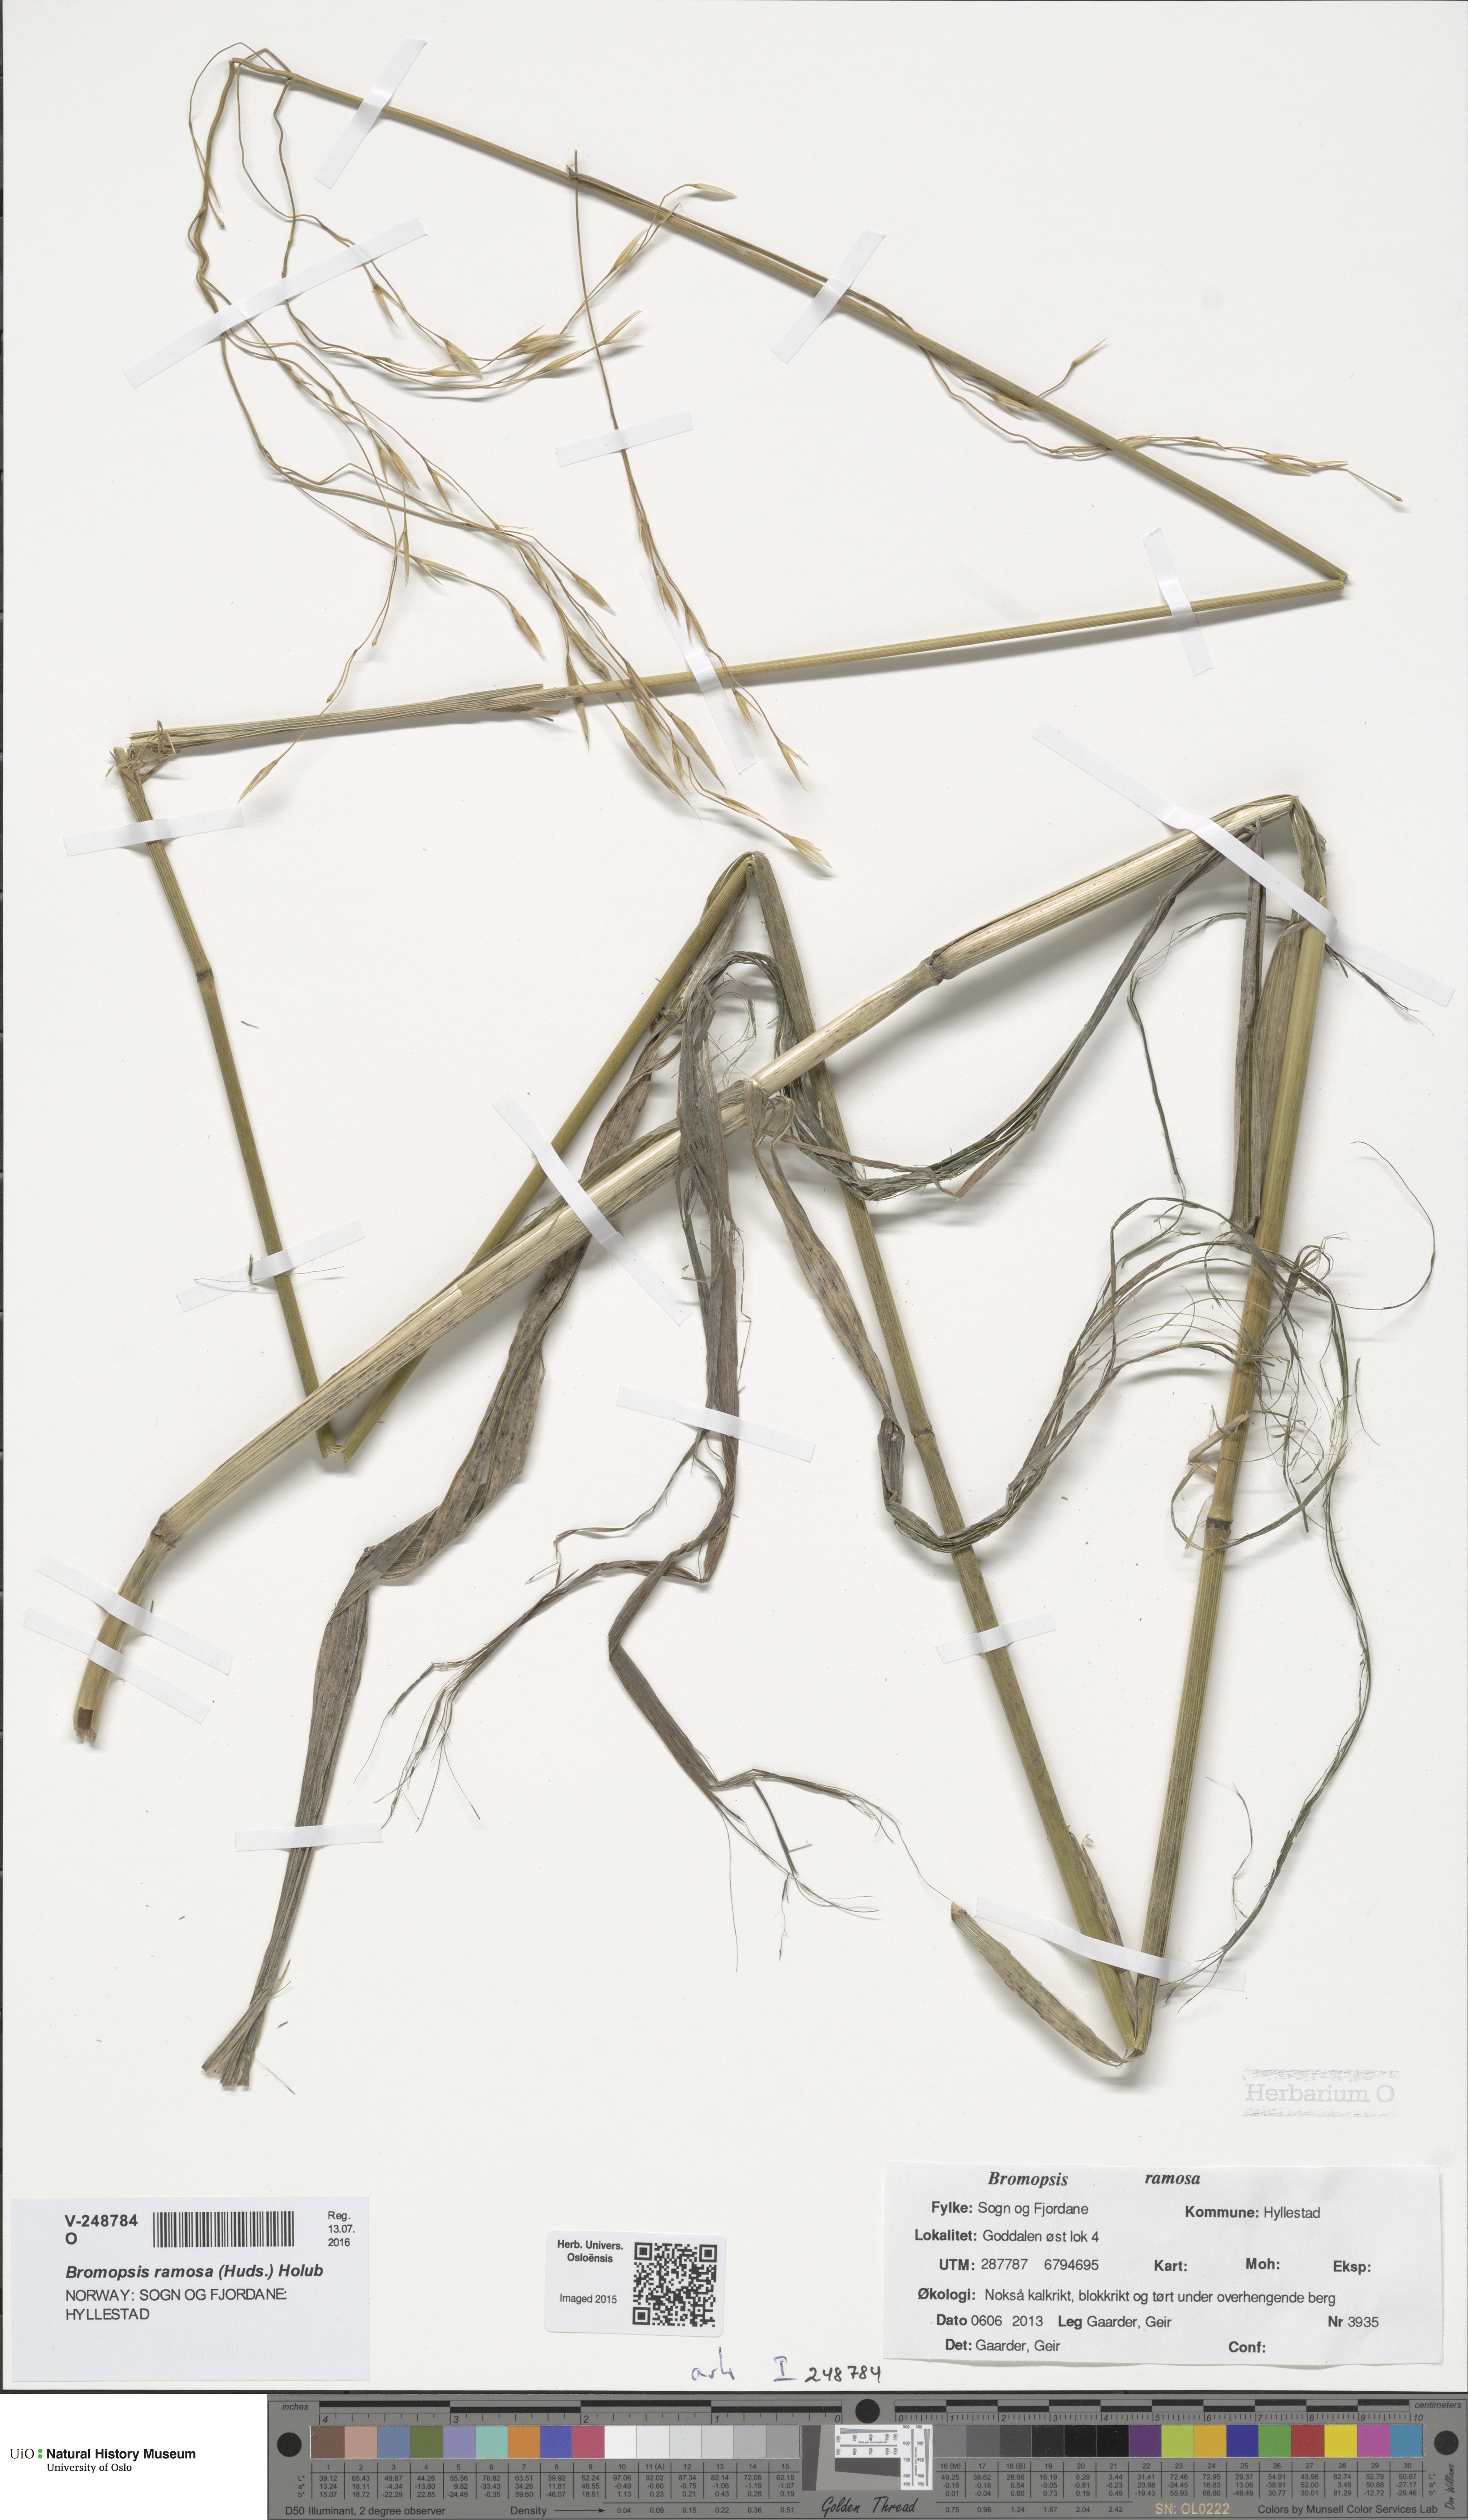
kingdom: Plantae
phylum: Tracheophyta
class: Liliopsida
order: Poales
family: Poaceae
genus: Bromus
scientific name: Bromus ramosus
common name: Hairy brome
